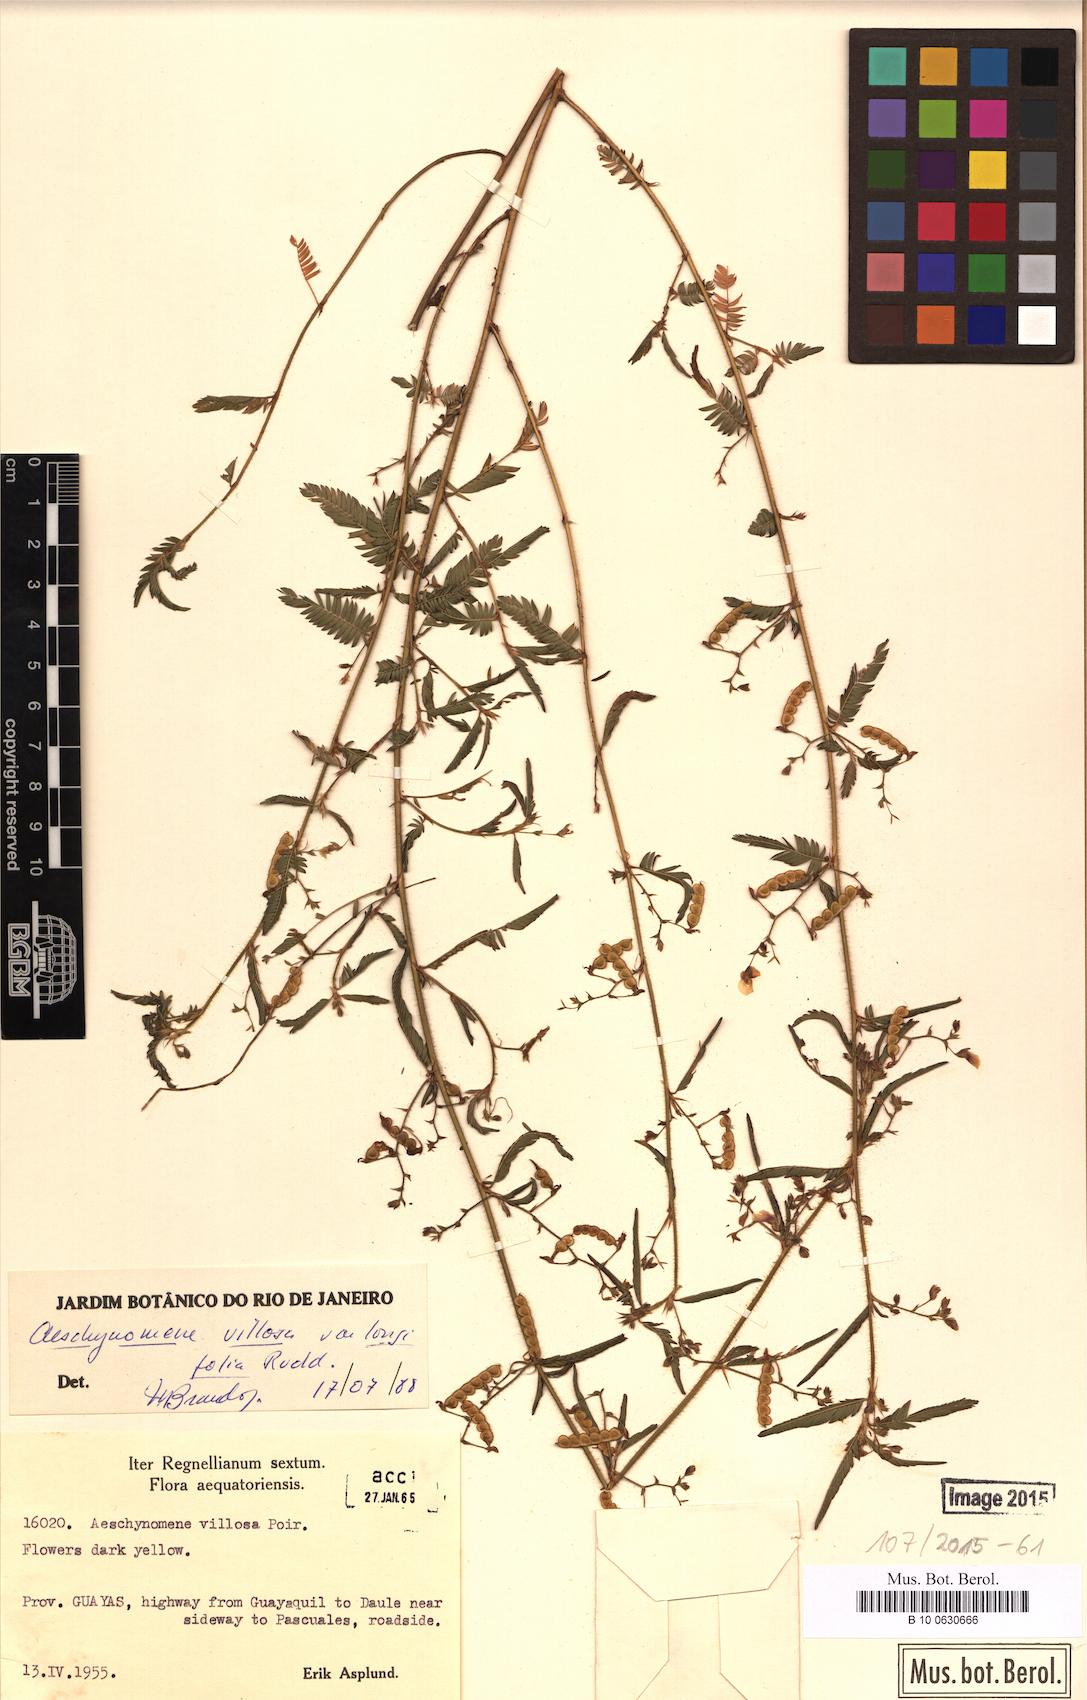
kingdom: Plantae
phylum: Tracheophyta
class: Magnoliopsida
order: Fabales
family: Fabaceae
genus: Aeschynomene
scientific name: Aeschynomene villosa
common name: Hairy-jointvetch
